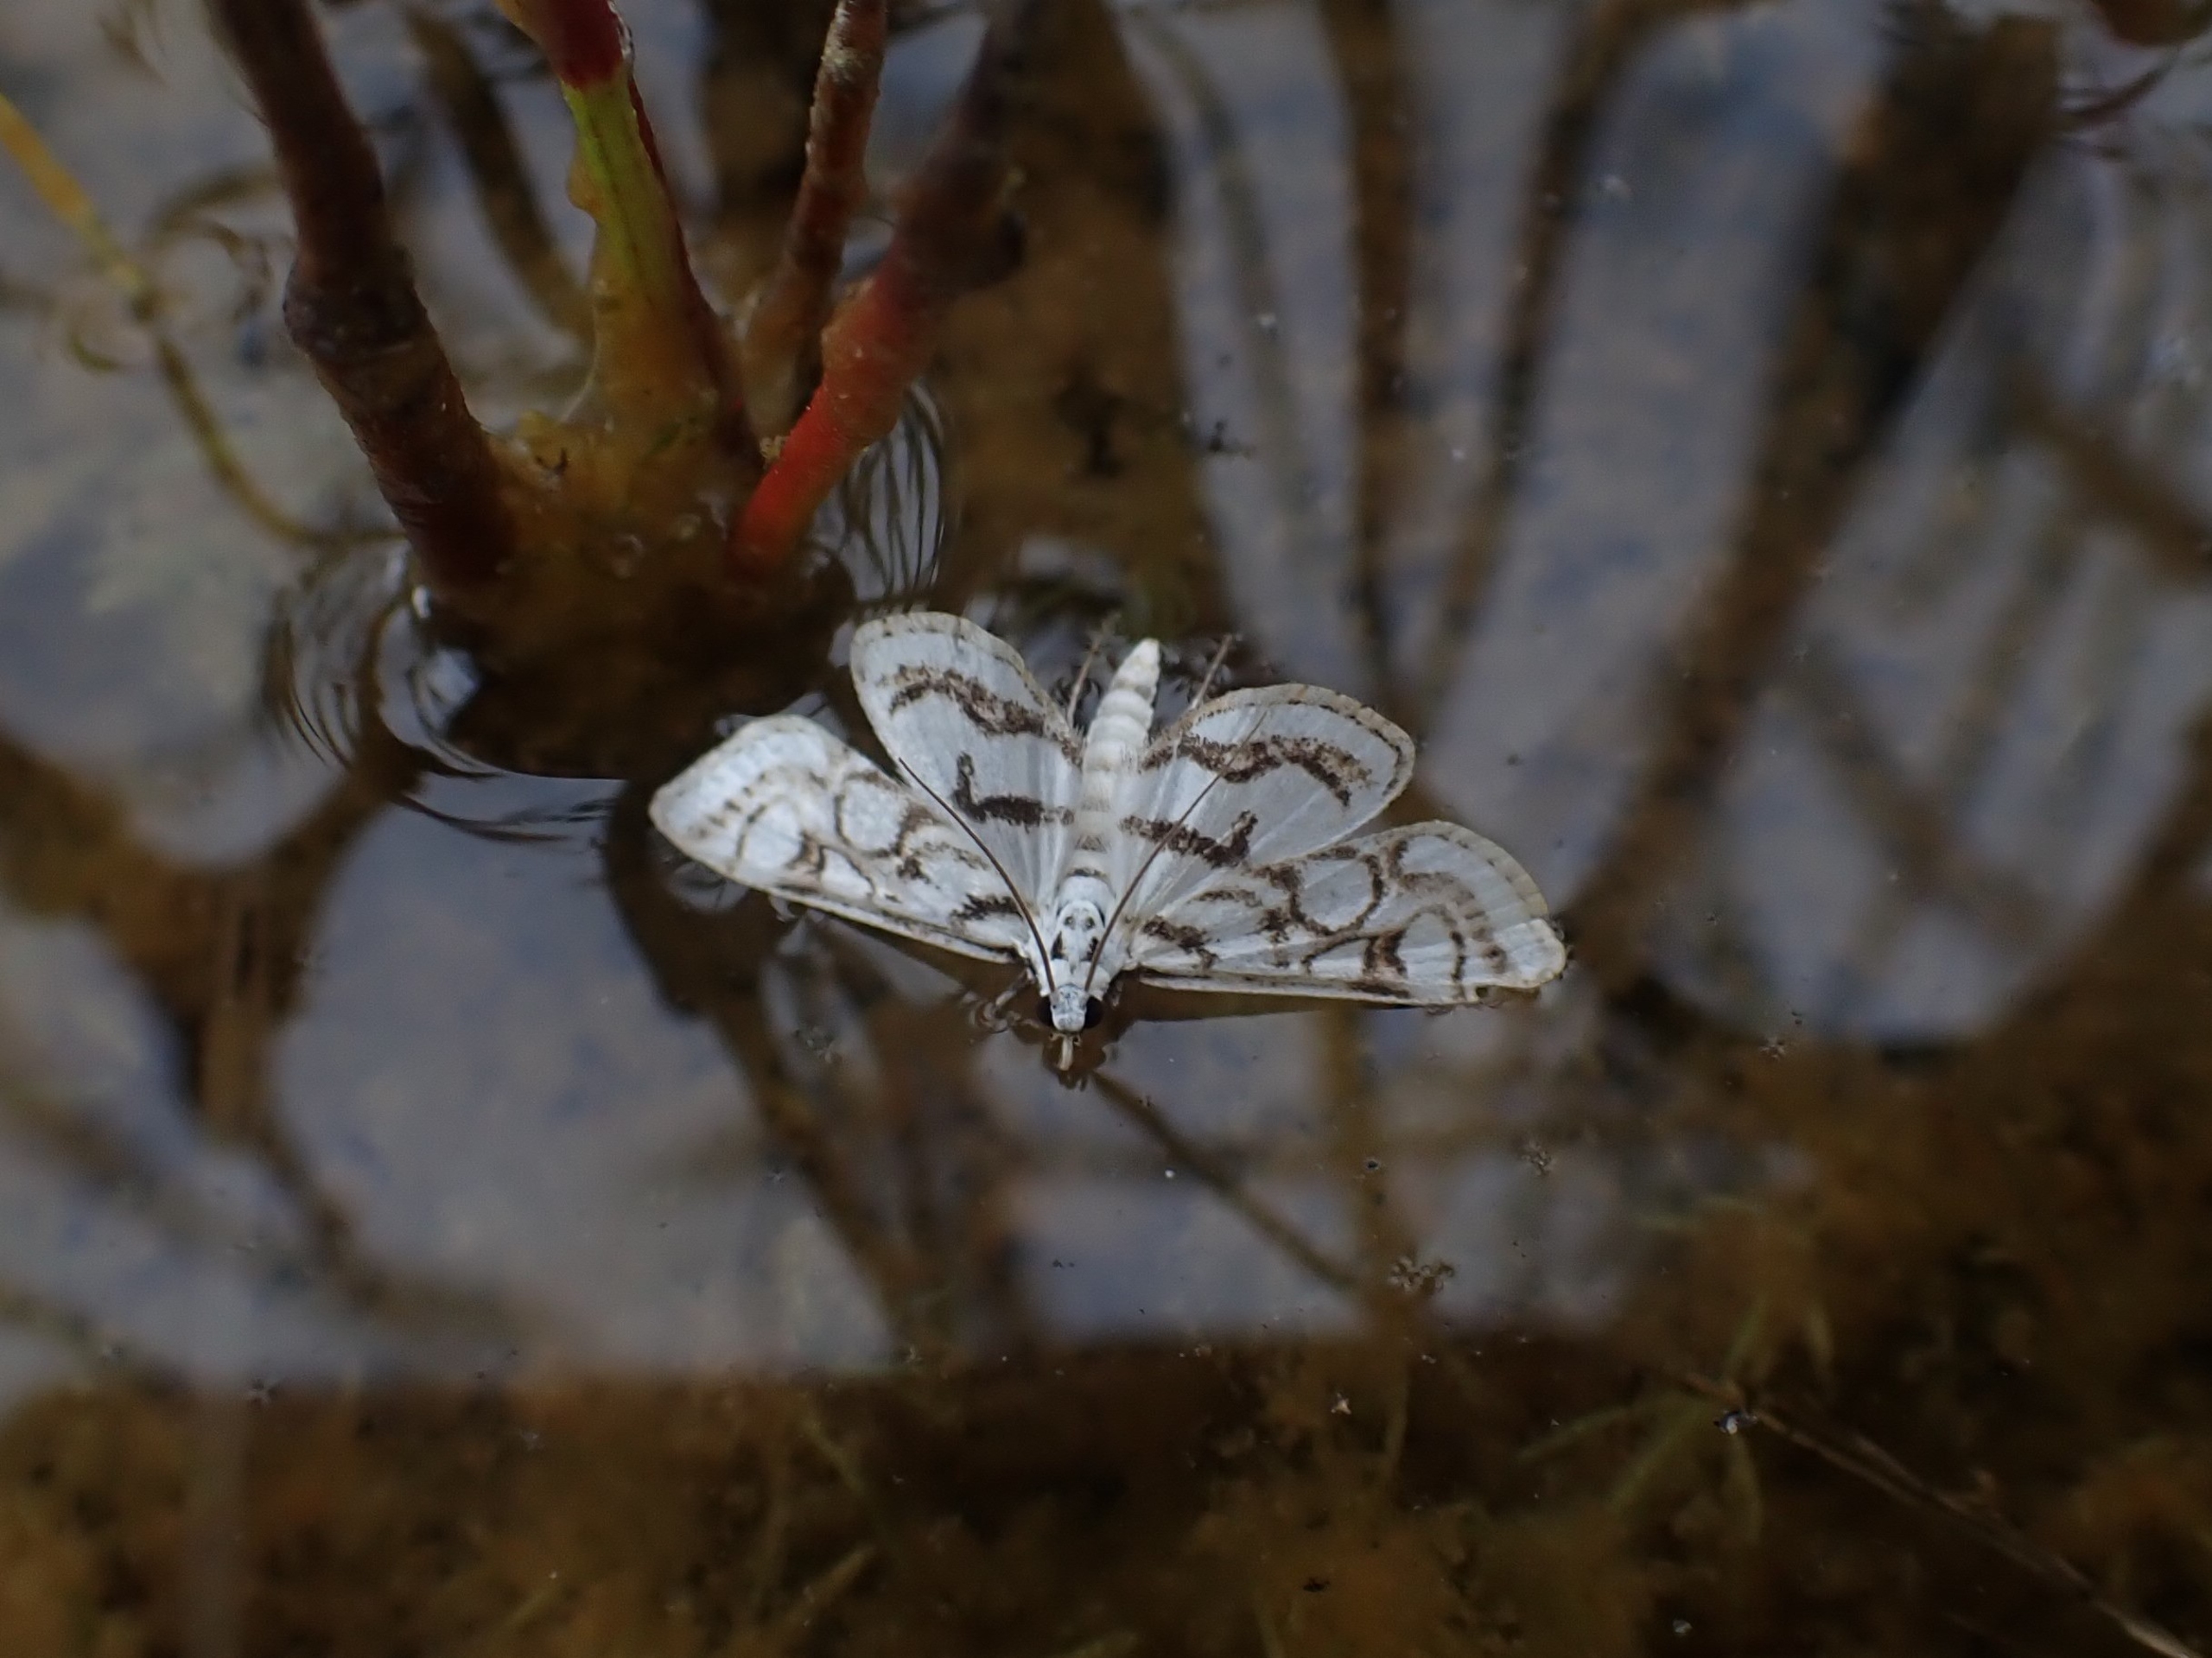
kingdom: Animalia
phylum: Arthropoda
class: Insecta
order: Lepidoptera
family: Crambidae
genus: Nymphula
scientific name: Nymphula nitidulata
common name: Lille porcelænsmøl
